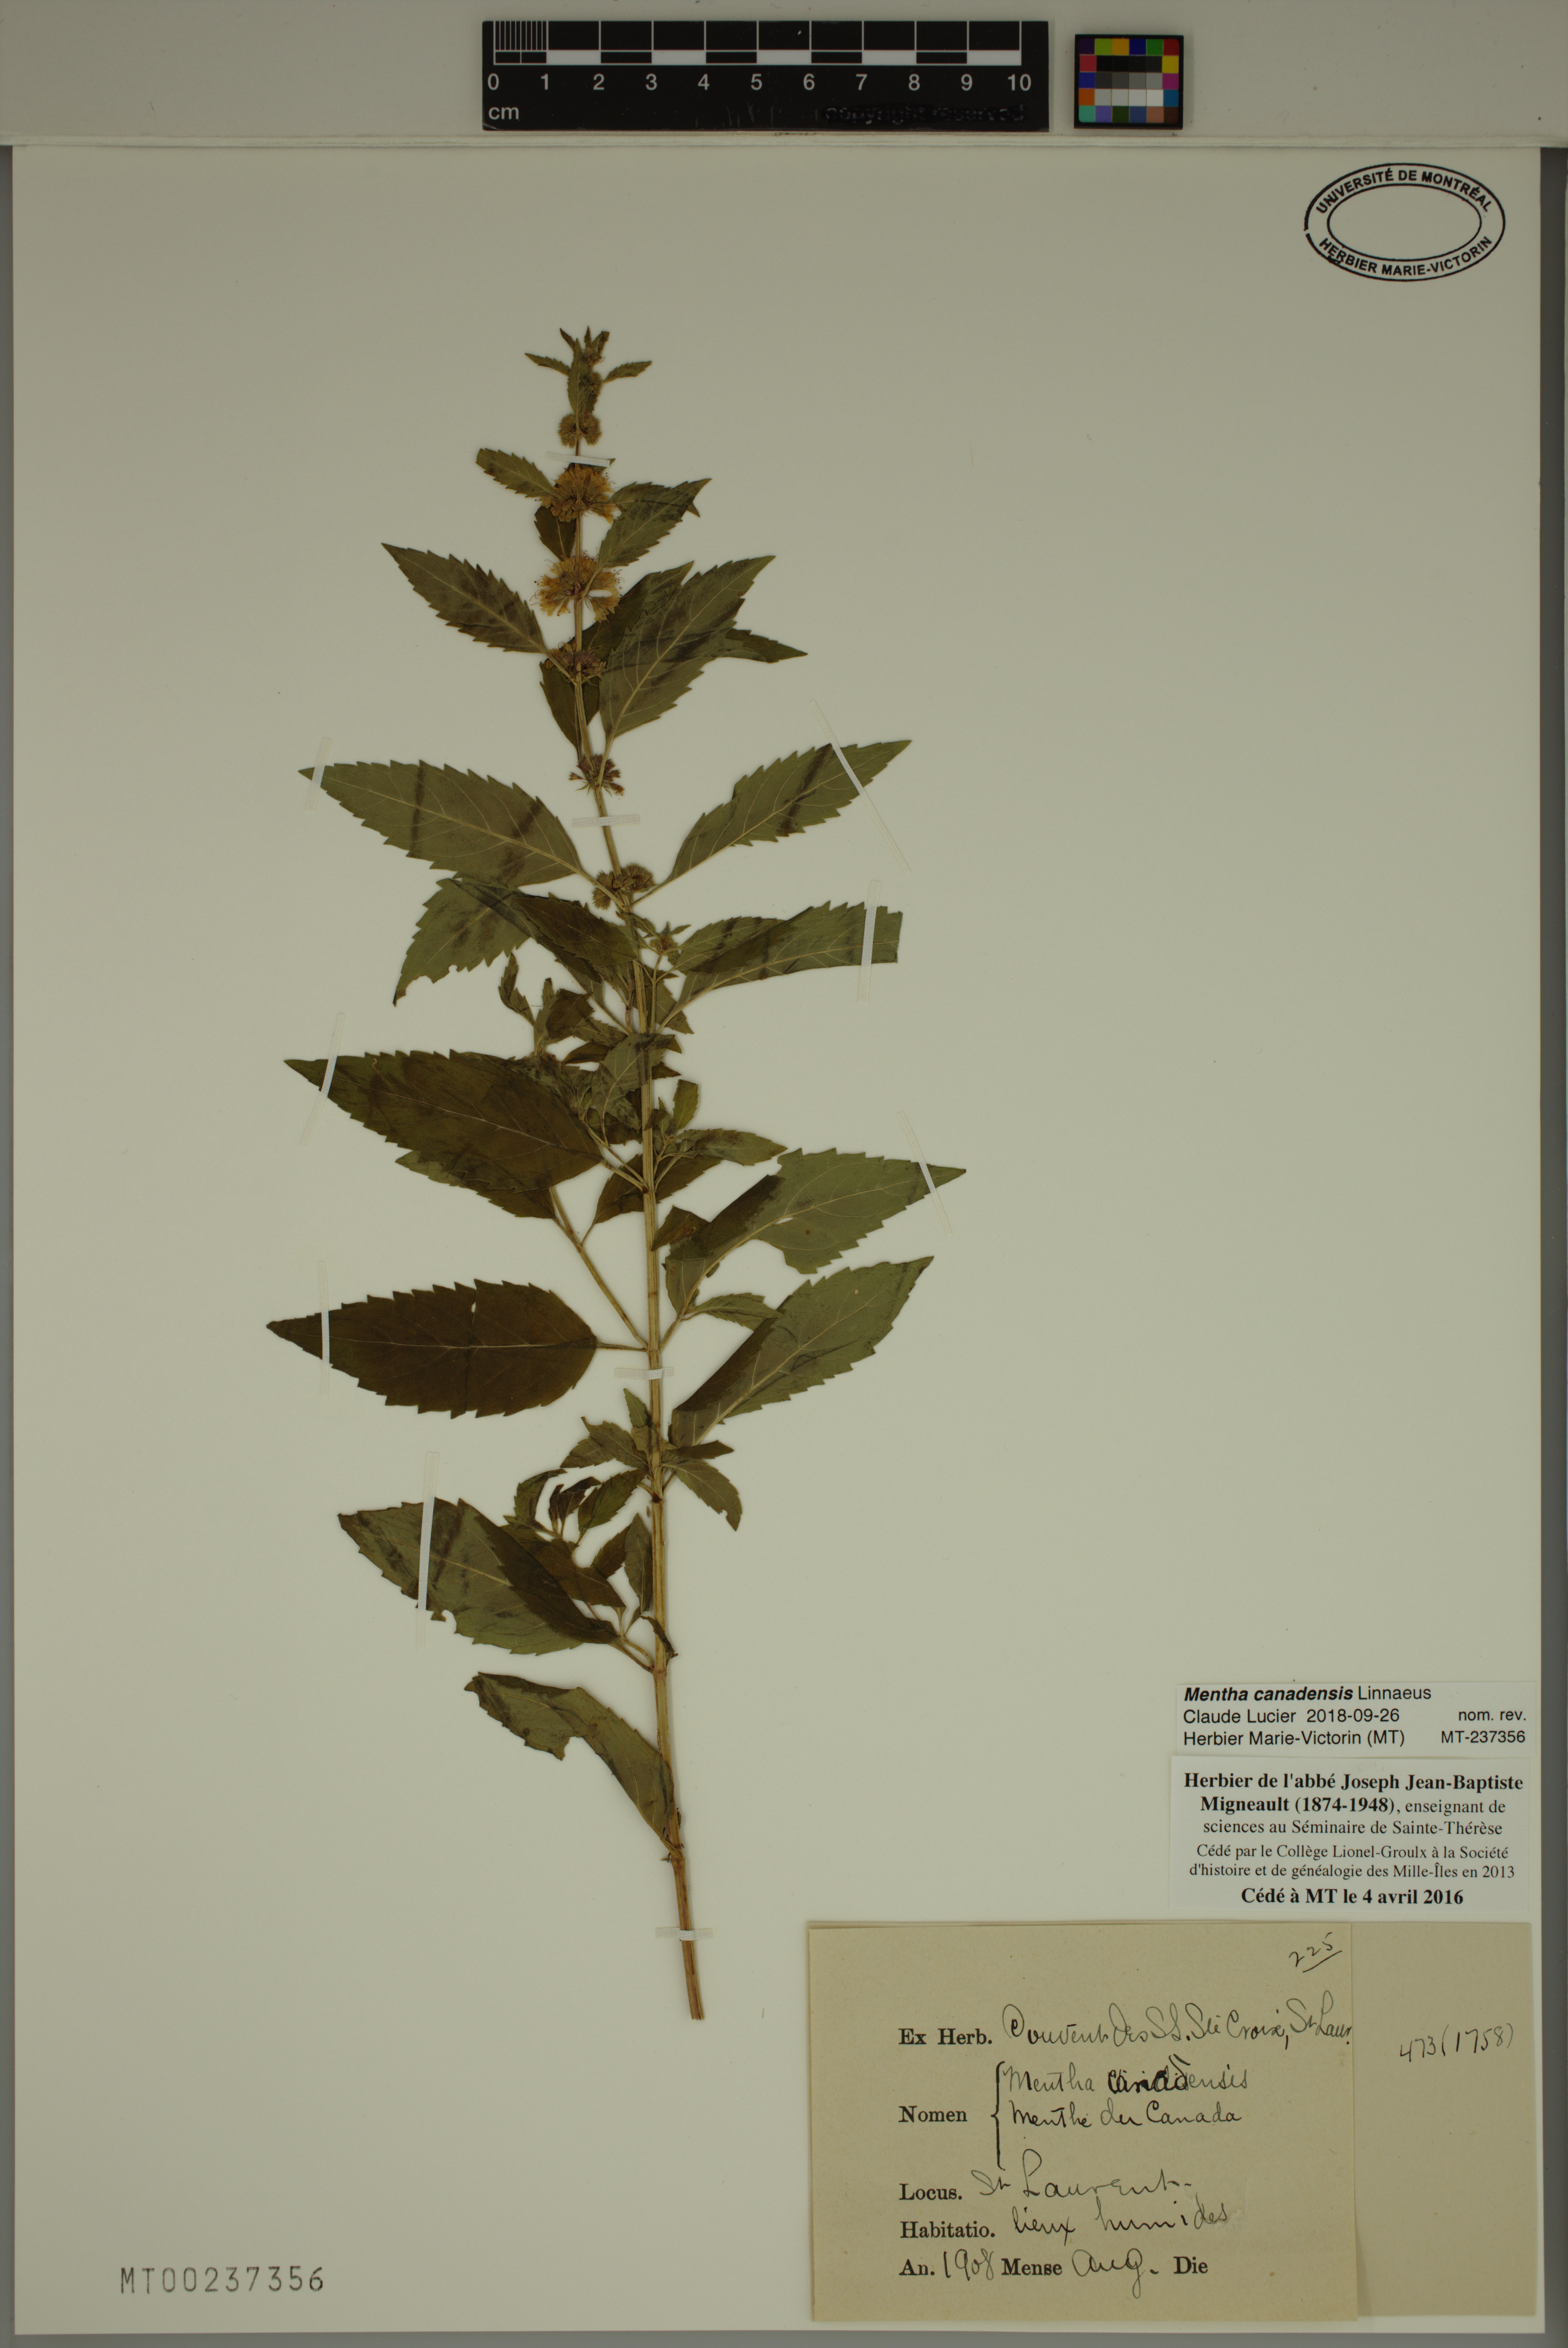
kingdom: Plantae
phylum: Tracheophyta
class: Magnoliopsida
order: Lamiales
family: Lamiaceae
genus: Mentha
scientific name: Mentha canadensis
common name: American corn mint
